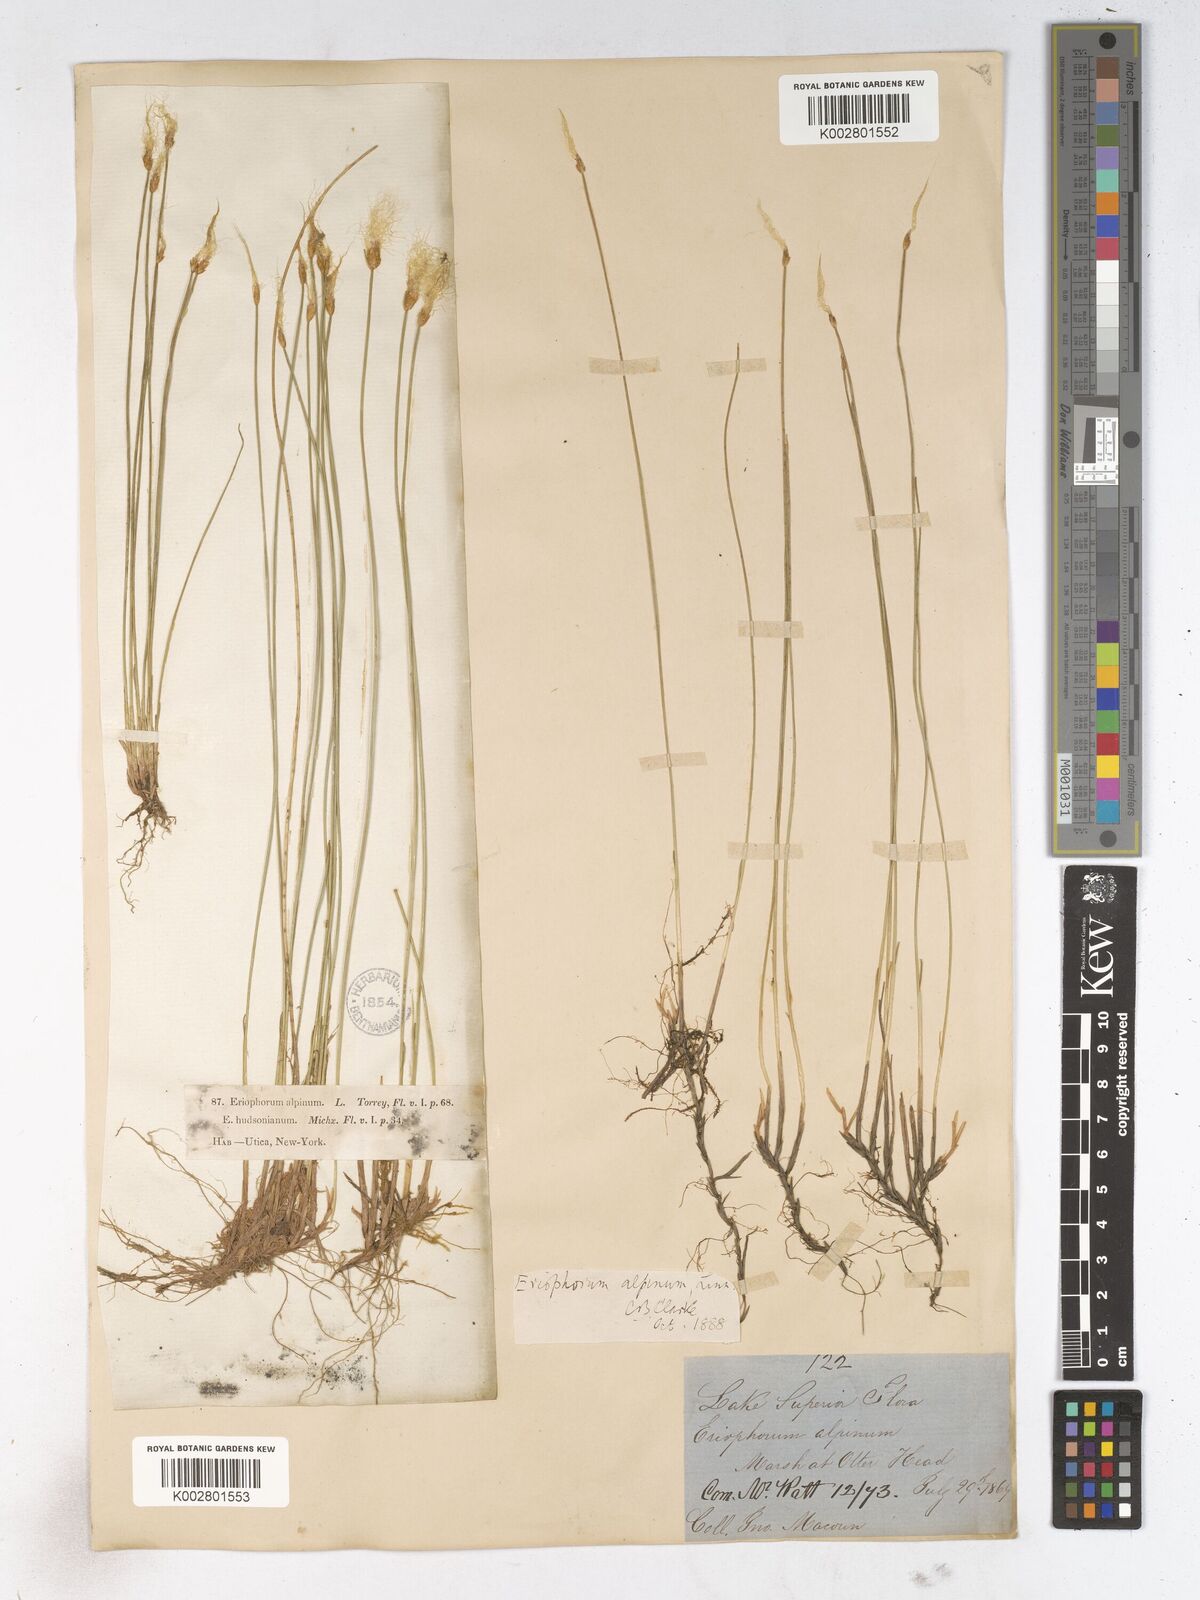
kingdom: Plantae
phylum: Tracheophyta
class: Liliopsida
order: Poales
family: Cyperaceae
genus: Trichophorum
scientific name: Trichophorum alpinum
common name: Alpine bulrush
